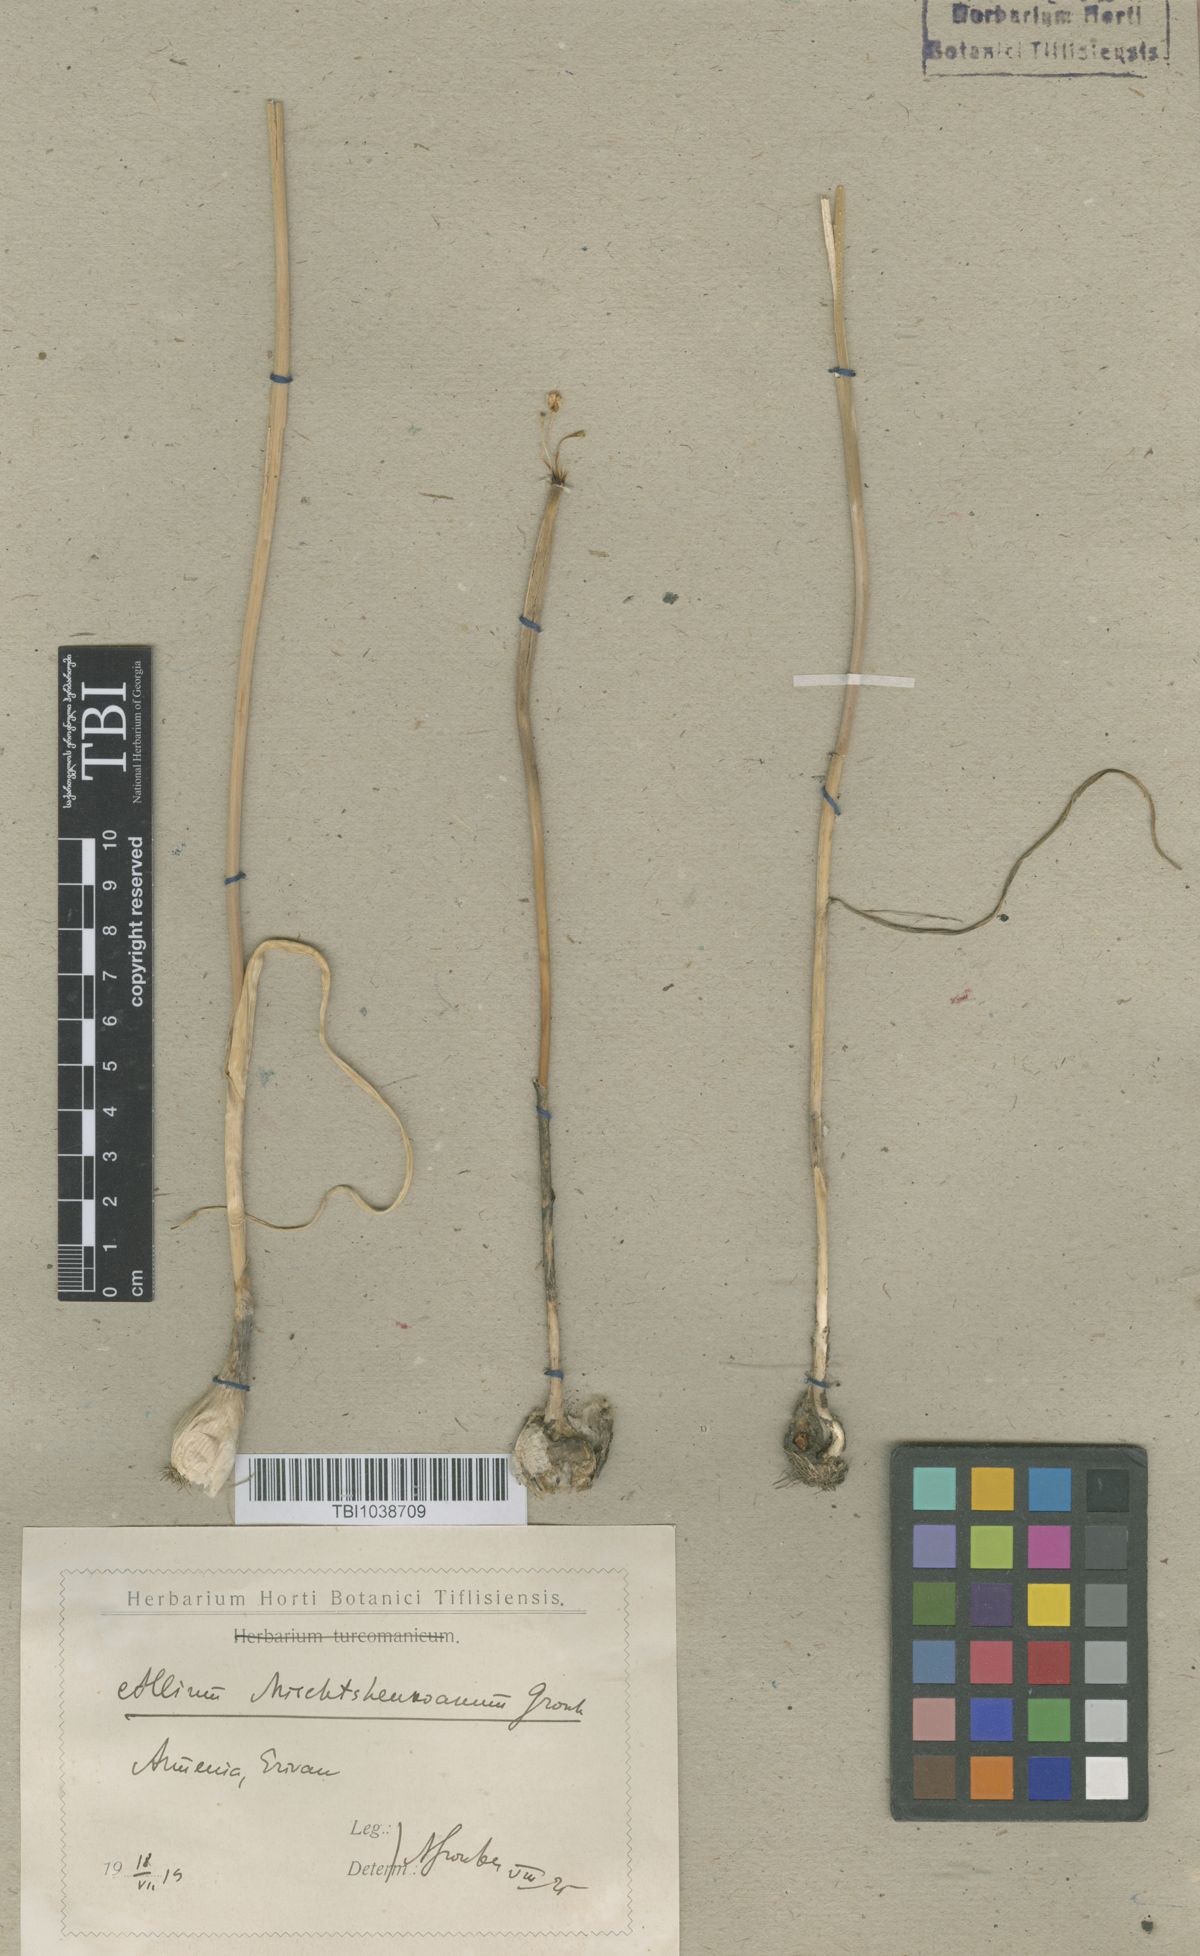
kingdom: Plantae
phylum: Tracheophyta
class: Liliopsida
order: Asparagales
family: Amaryllidaceae
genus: Allium
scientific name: Allium affine
